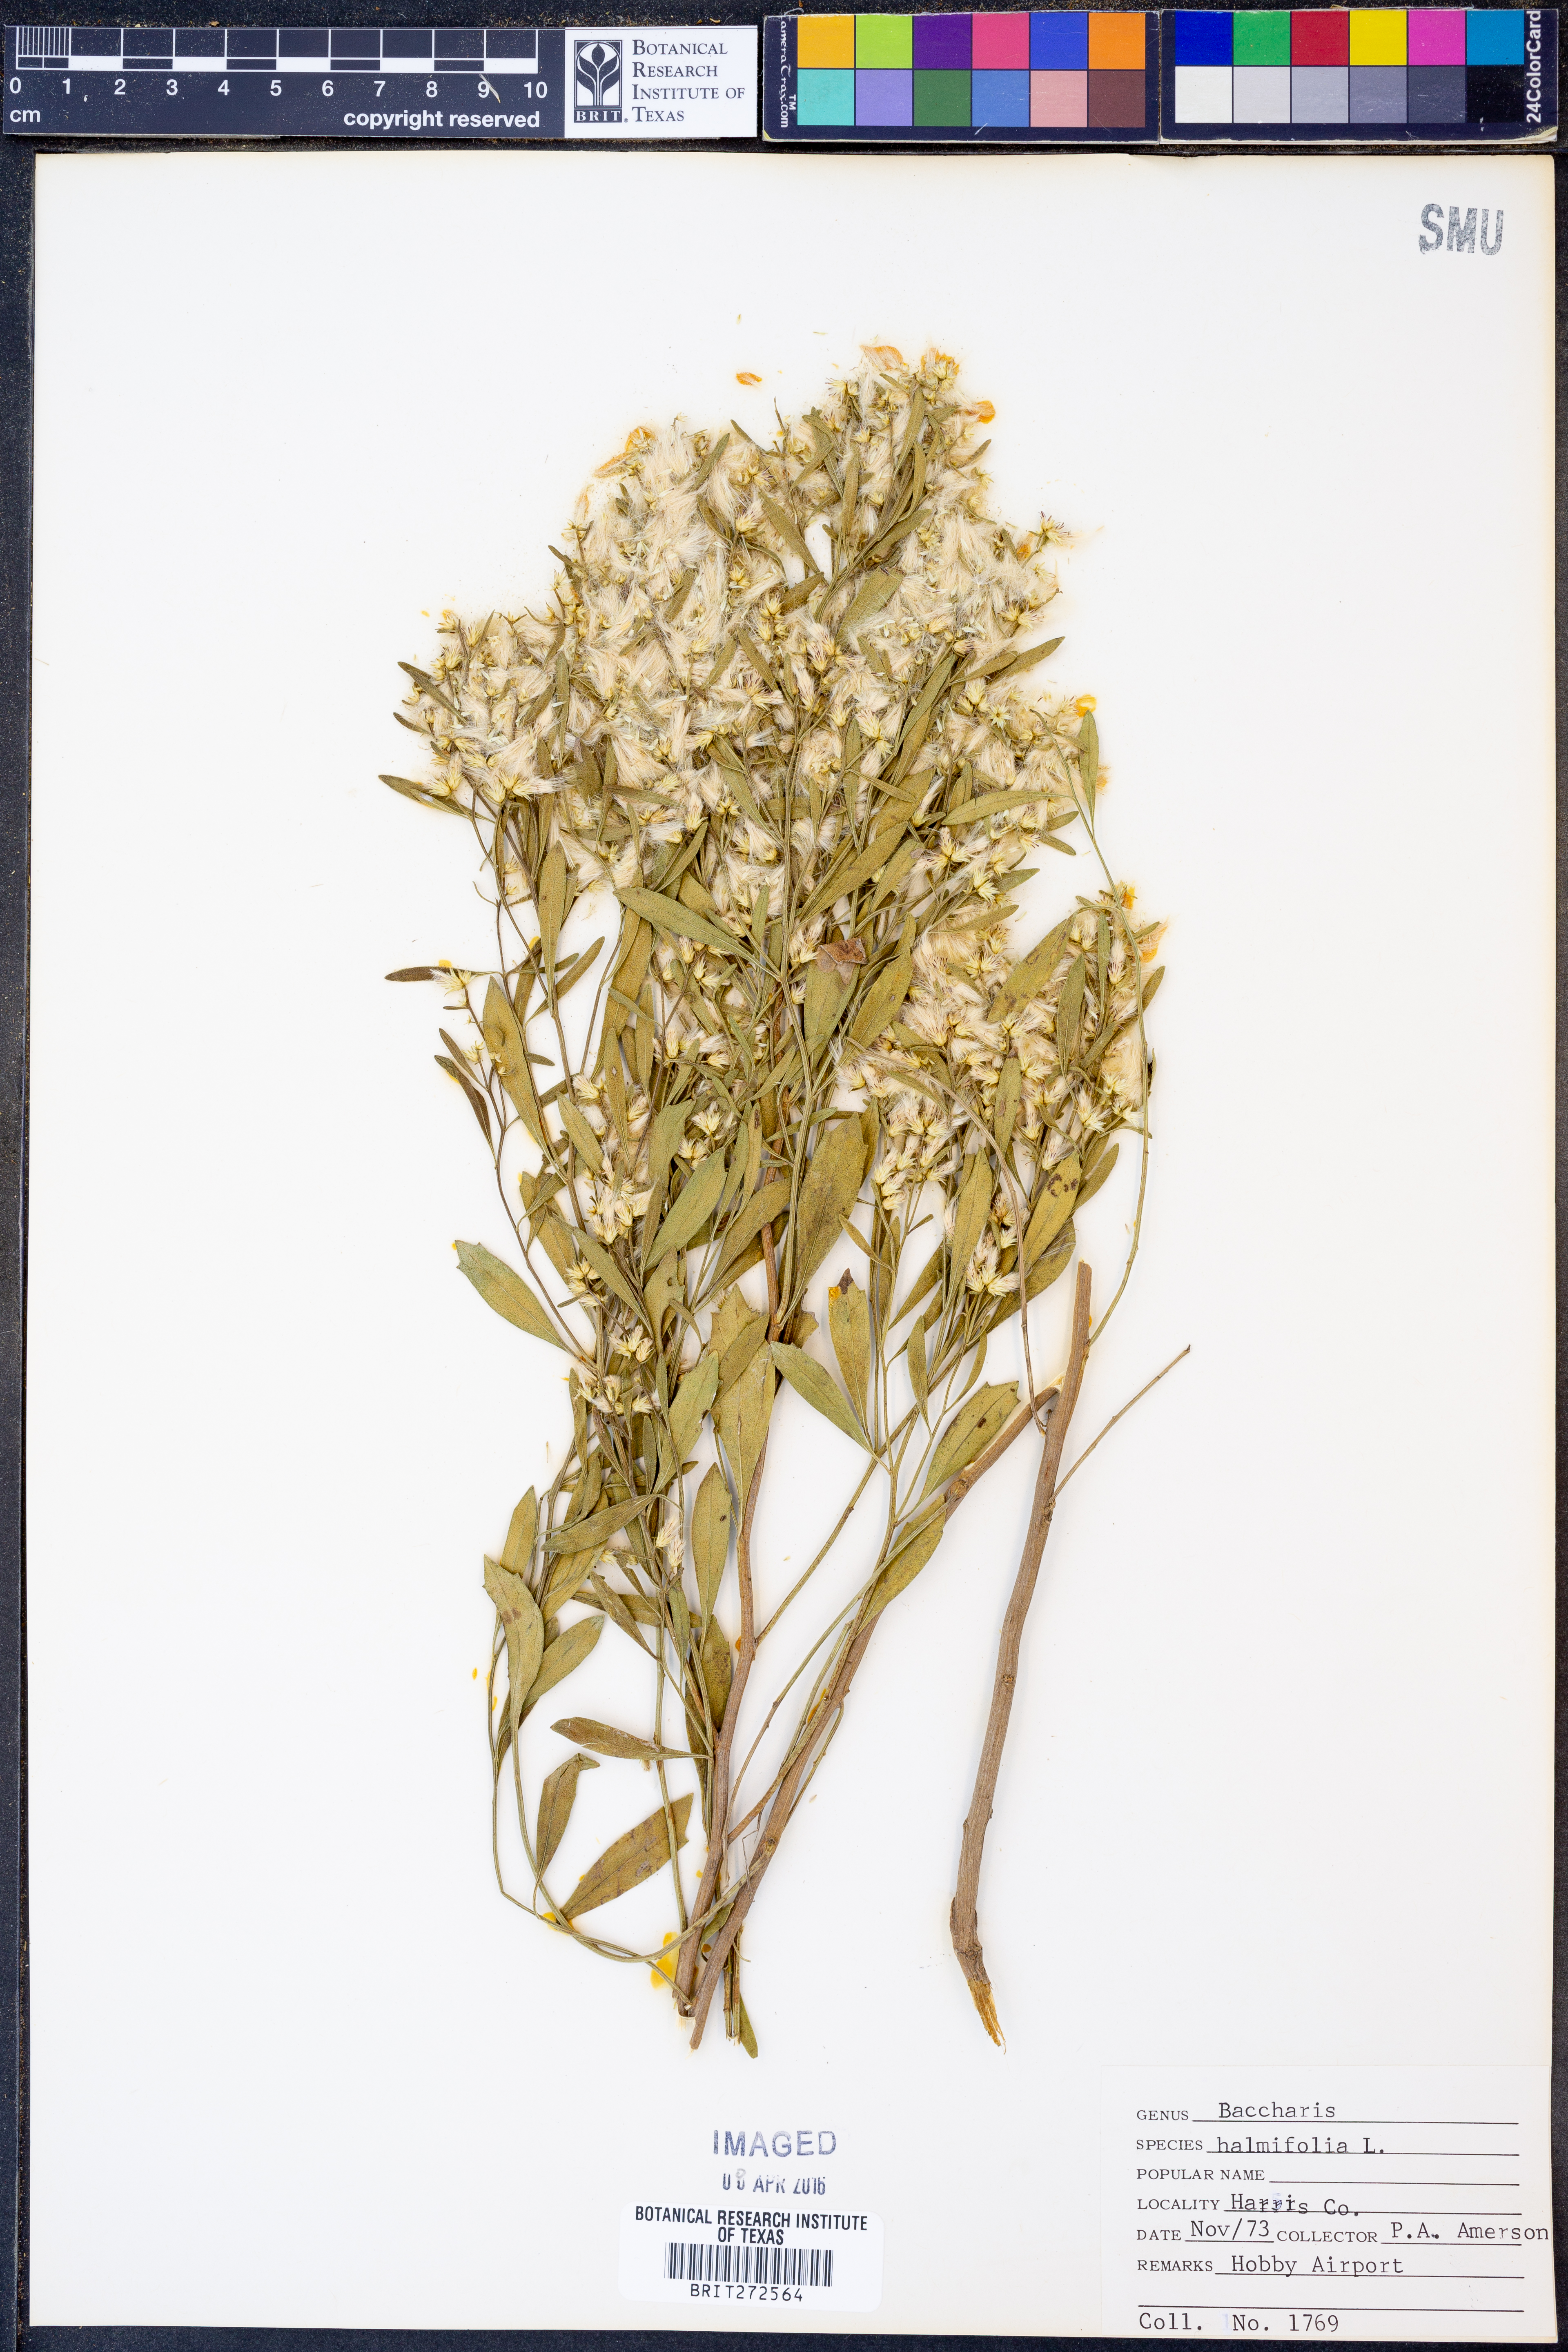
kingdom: Plantae
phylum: Tracheophyta
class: Magnoliopsida
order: Asterales
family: Asteraceae
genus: Nidorella
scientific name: Nidorella ivifolia
